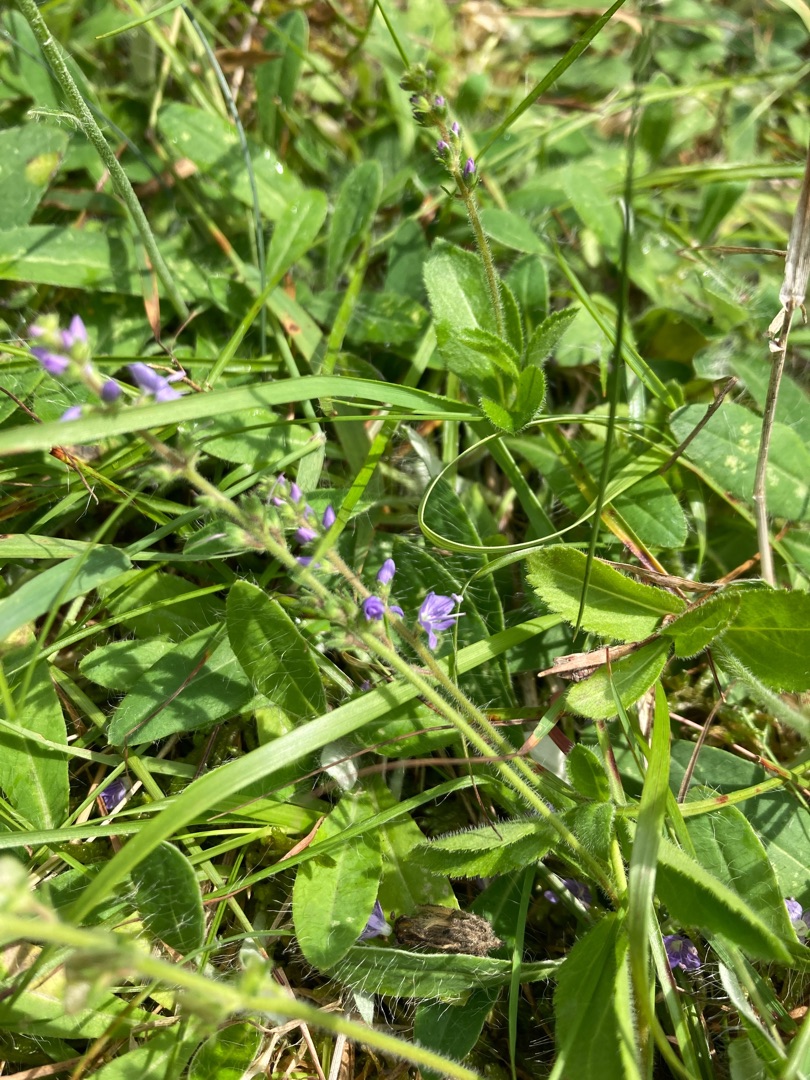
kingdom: Plantae
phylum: Tracheophyta
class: Magnoliopsida
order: Lamiales
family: Plantaginaceae
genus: Veronica
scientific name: Veronica officinalis
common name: Læge-ærenpris
